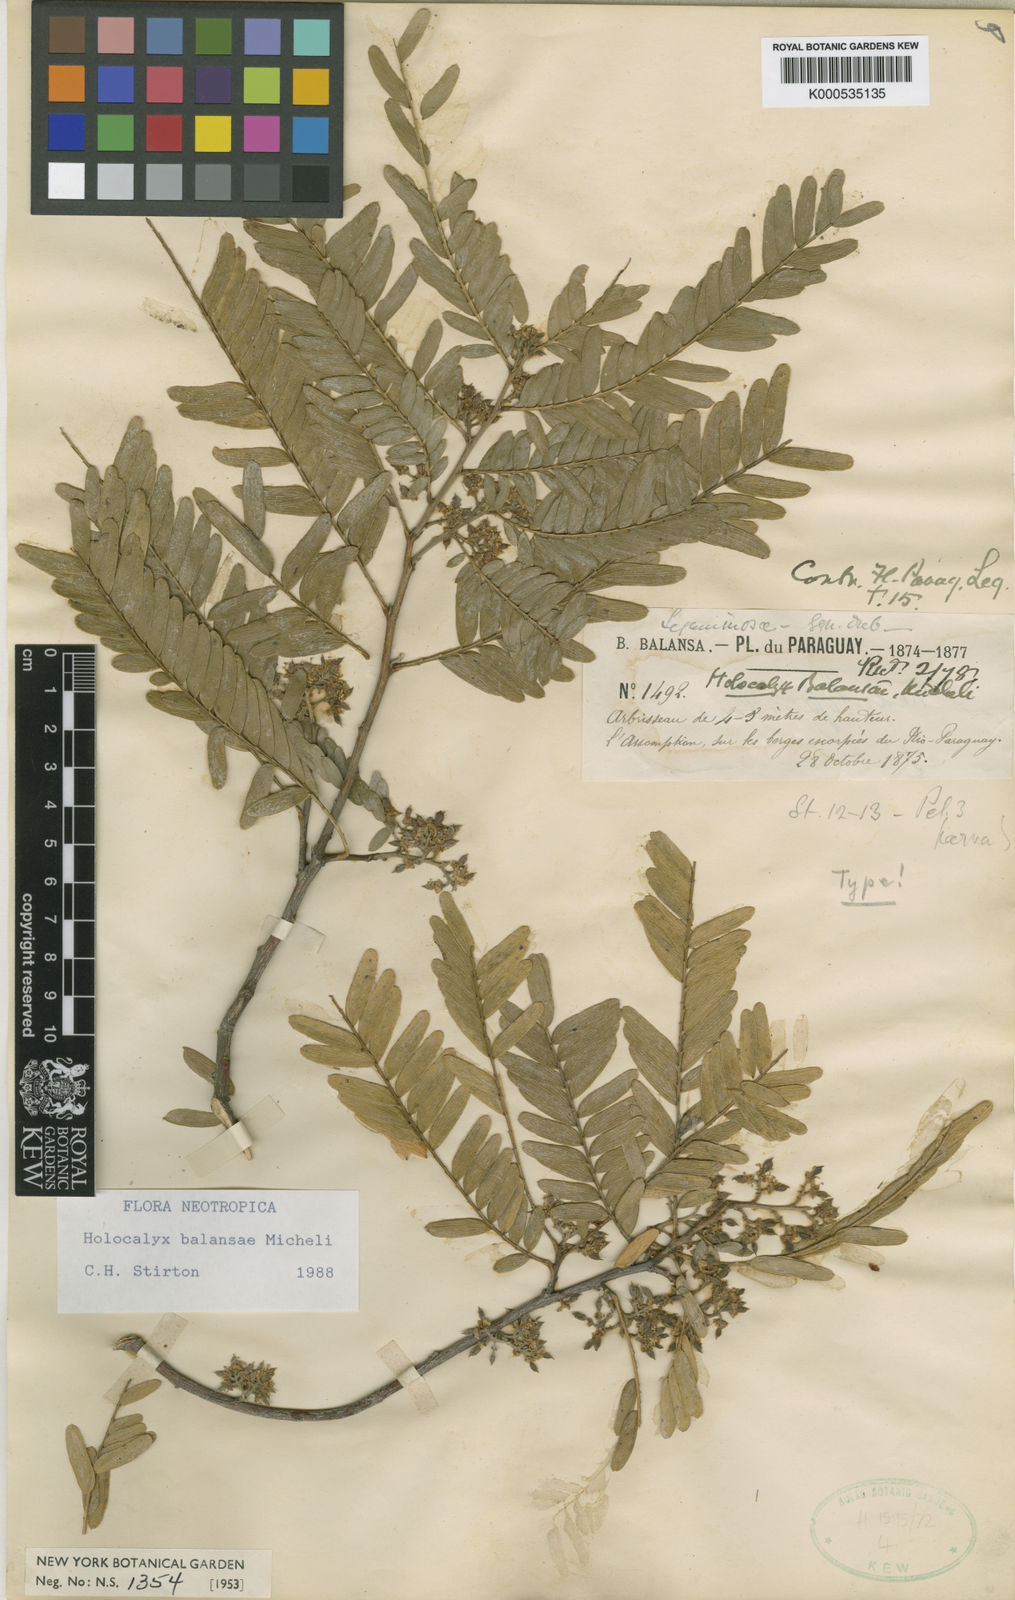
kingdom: Plantae
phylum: Tracheophyta
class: Magnoliopsida
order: Fabales
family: Fabaceae
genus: Holocalyx
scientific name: Holocalyx balansae
